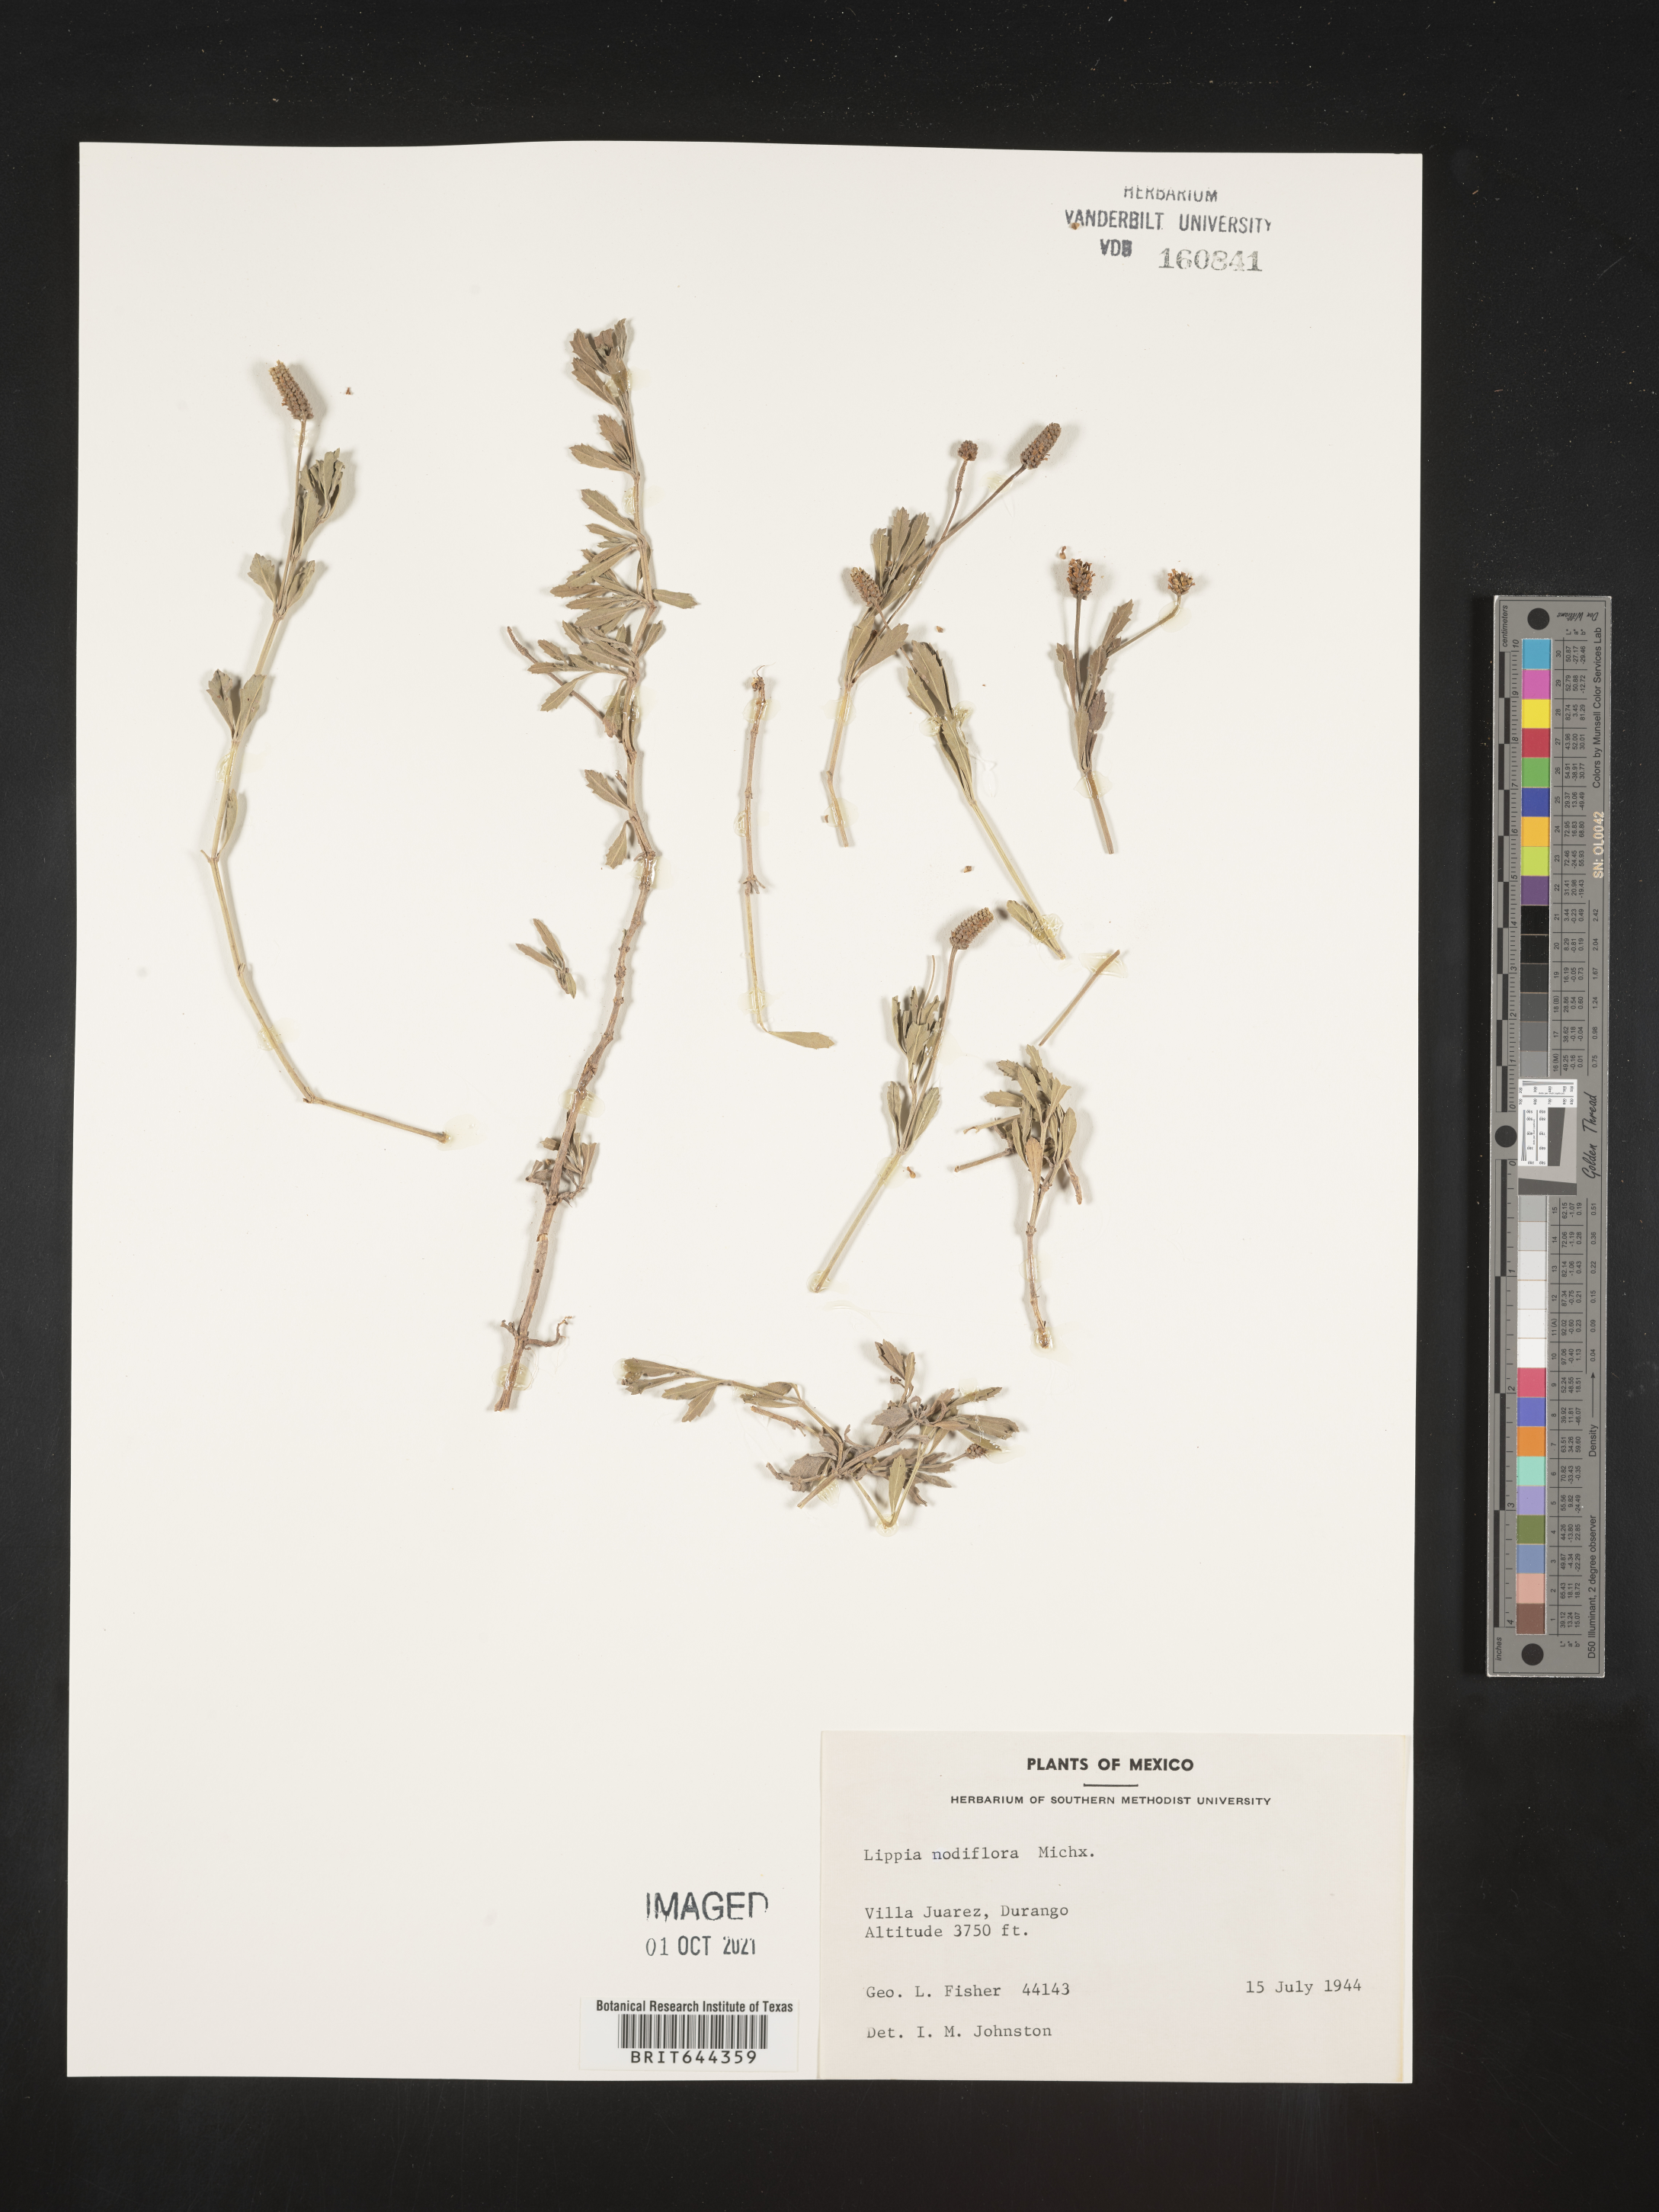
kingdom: Plantae
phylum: Tracheophyta
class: Magnoliopsida
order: Lamiales
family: Verbenaceae
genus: Lippia
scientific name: Lippia
